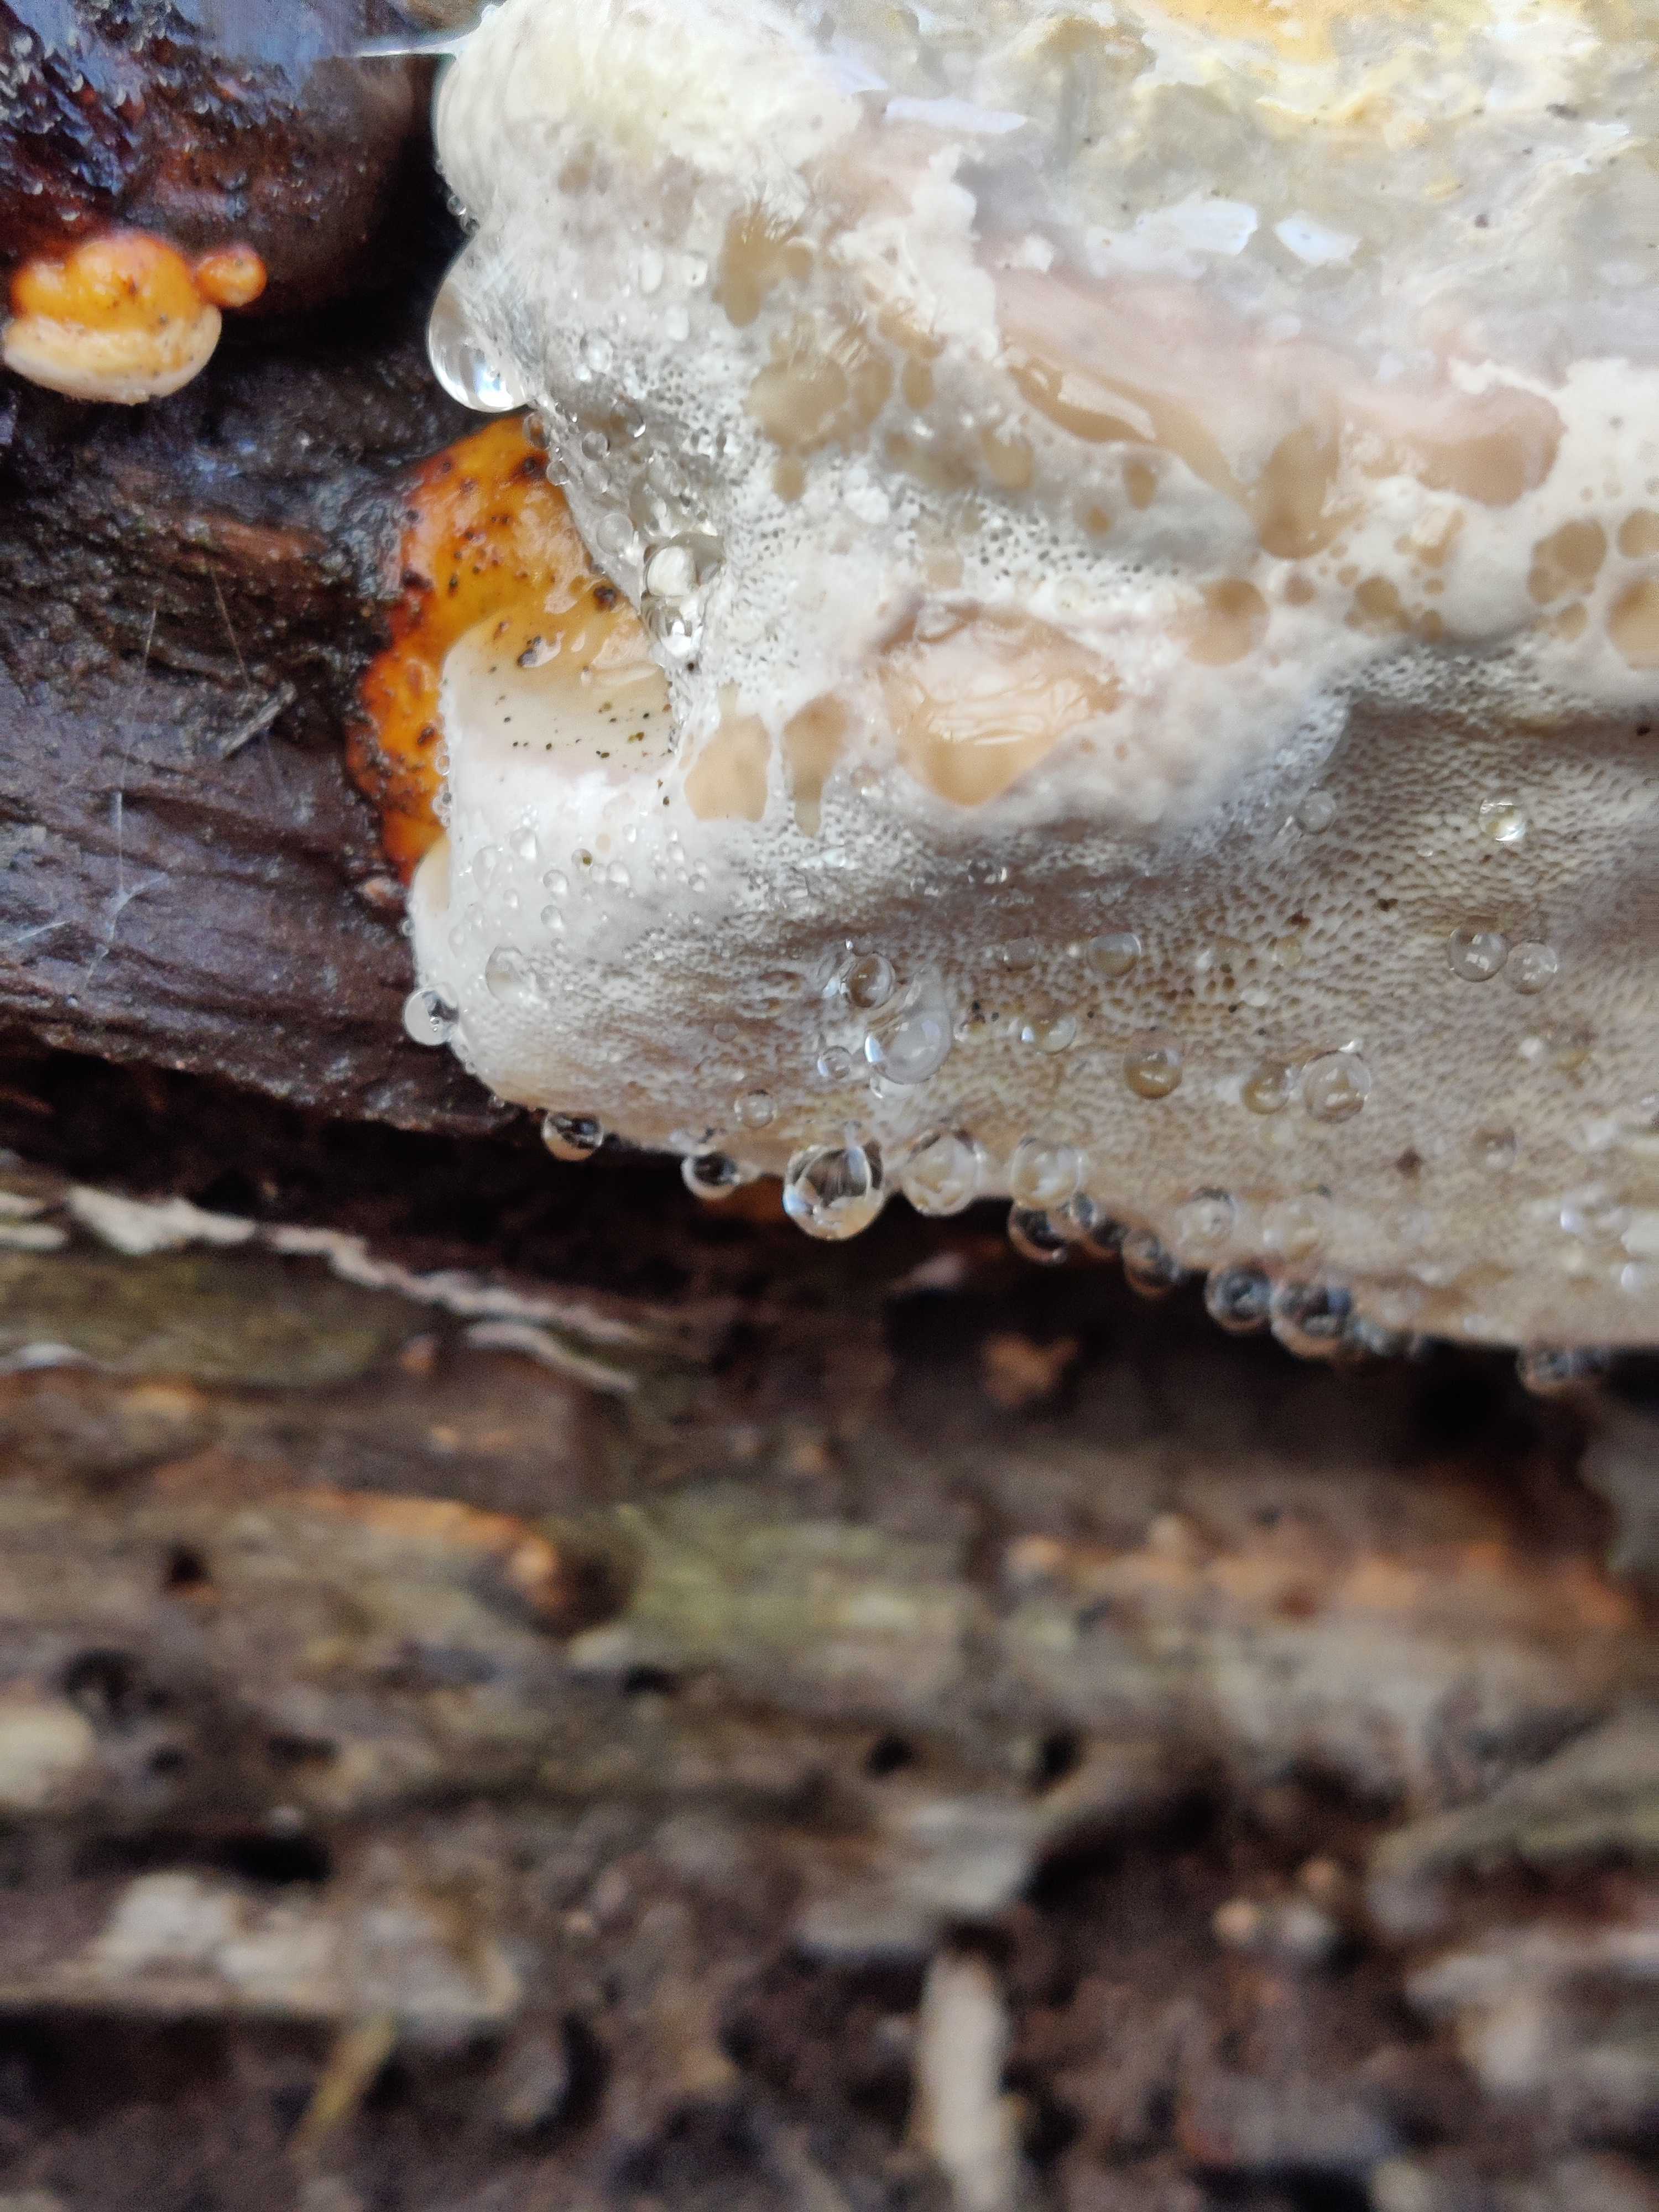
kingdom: Fungi
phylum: Basidiomycota
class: Agaricomycetes
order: Polyporales
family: Fomitopsidaceae
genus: Fomitopsis
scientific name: Fomitopsis pinicola
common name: randbæltet hovporesvamp
